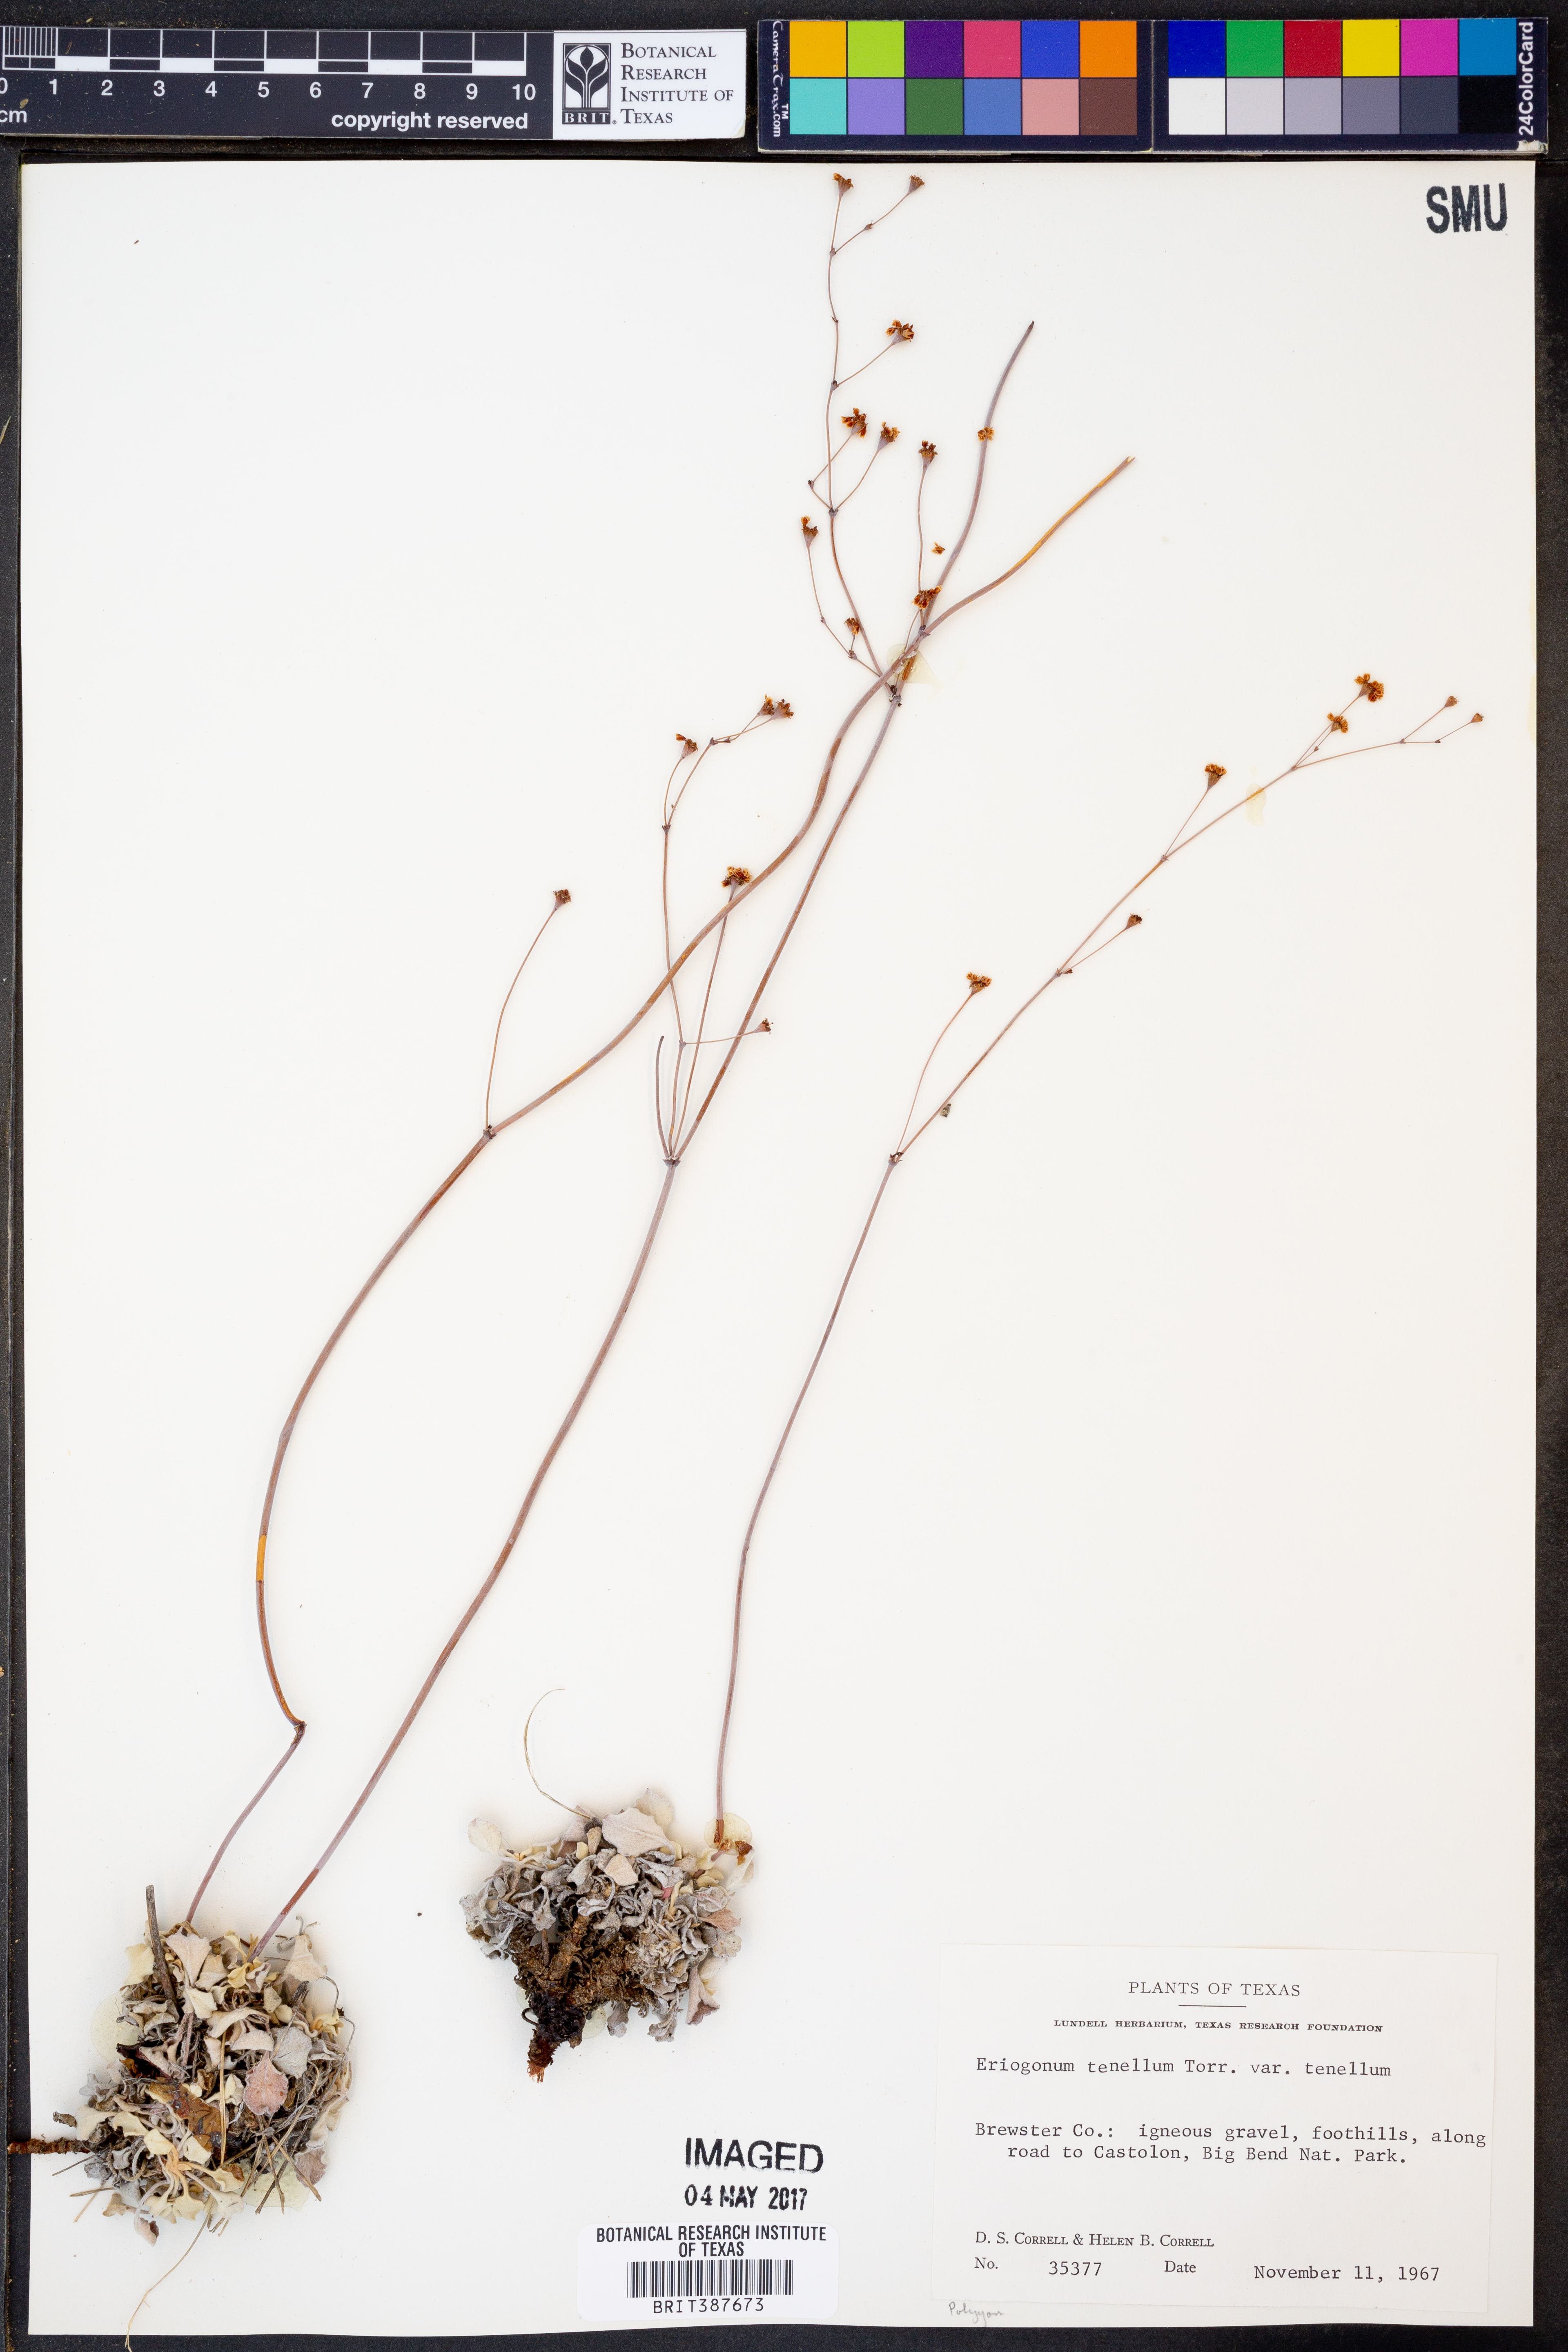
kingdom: Plantae
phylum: Tracheophyta
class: Magnoliopsida
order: Caryophyllales
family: Polygonaceae
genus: Eriogonum
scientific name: Eriogonum tenellum
